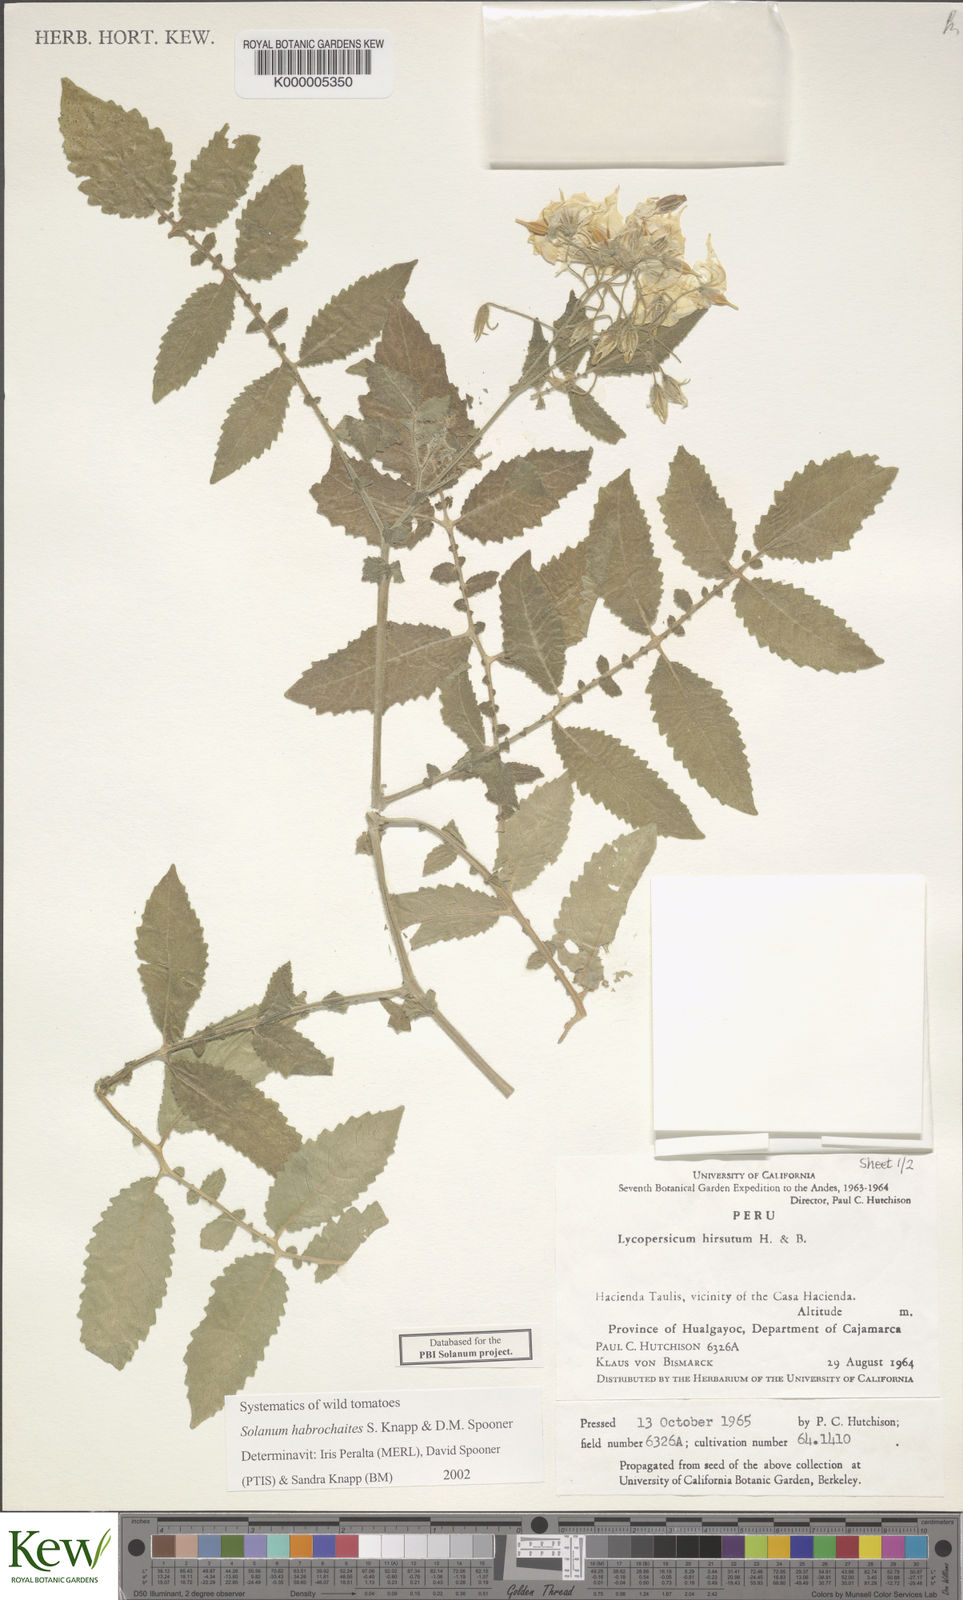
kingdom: Plantae
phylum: Tracheophyta
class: Magnoliopsida
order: Solanales
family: Solanaceae
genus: Solanum
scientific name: Solanum habrochaites
